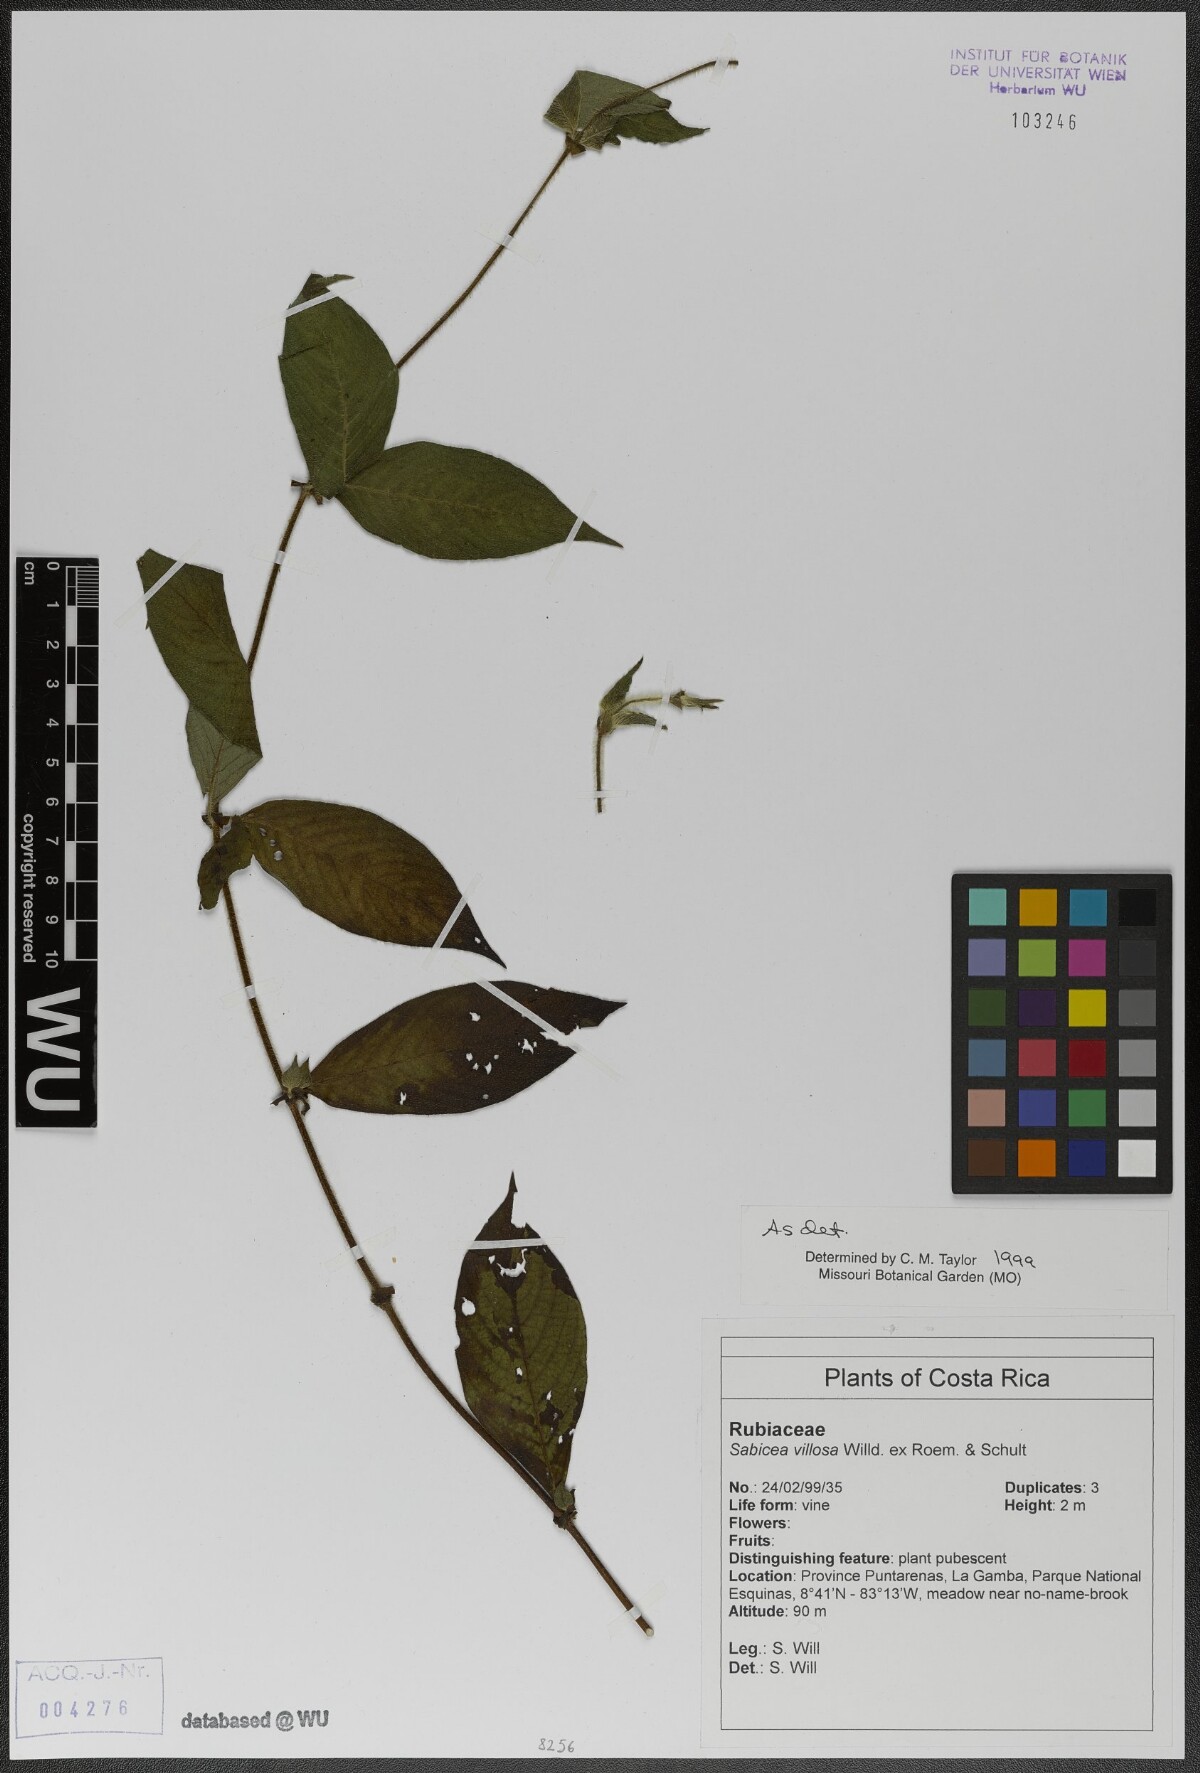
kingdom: Plantae
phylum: Tracheophyta
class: Magnoliopsida
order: Gentianales
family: Rubiaceae
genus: Sabicea
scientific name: Sabicea villosa
